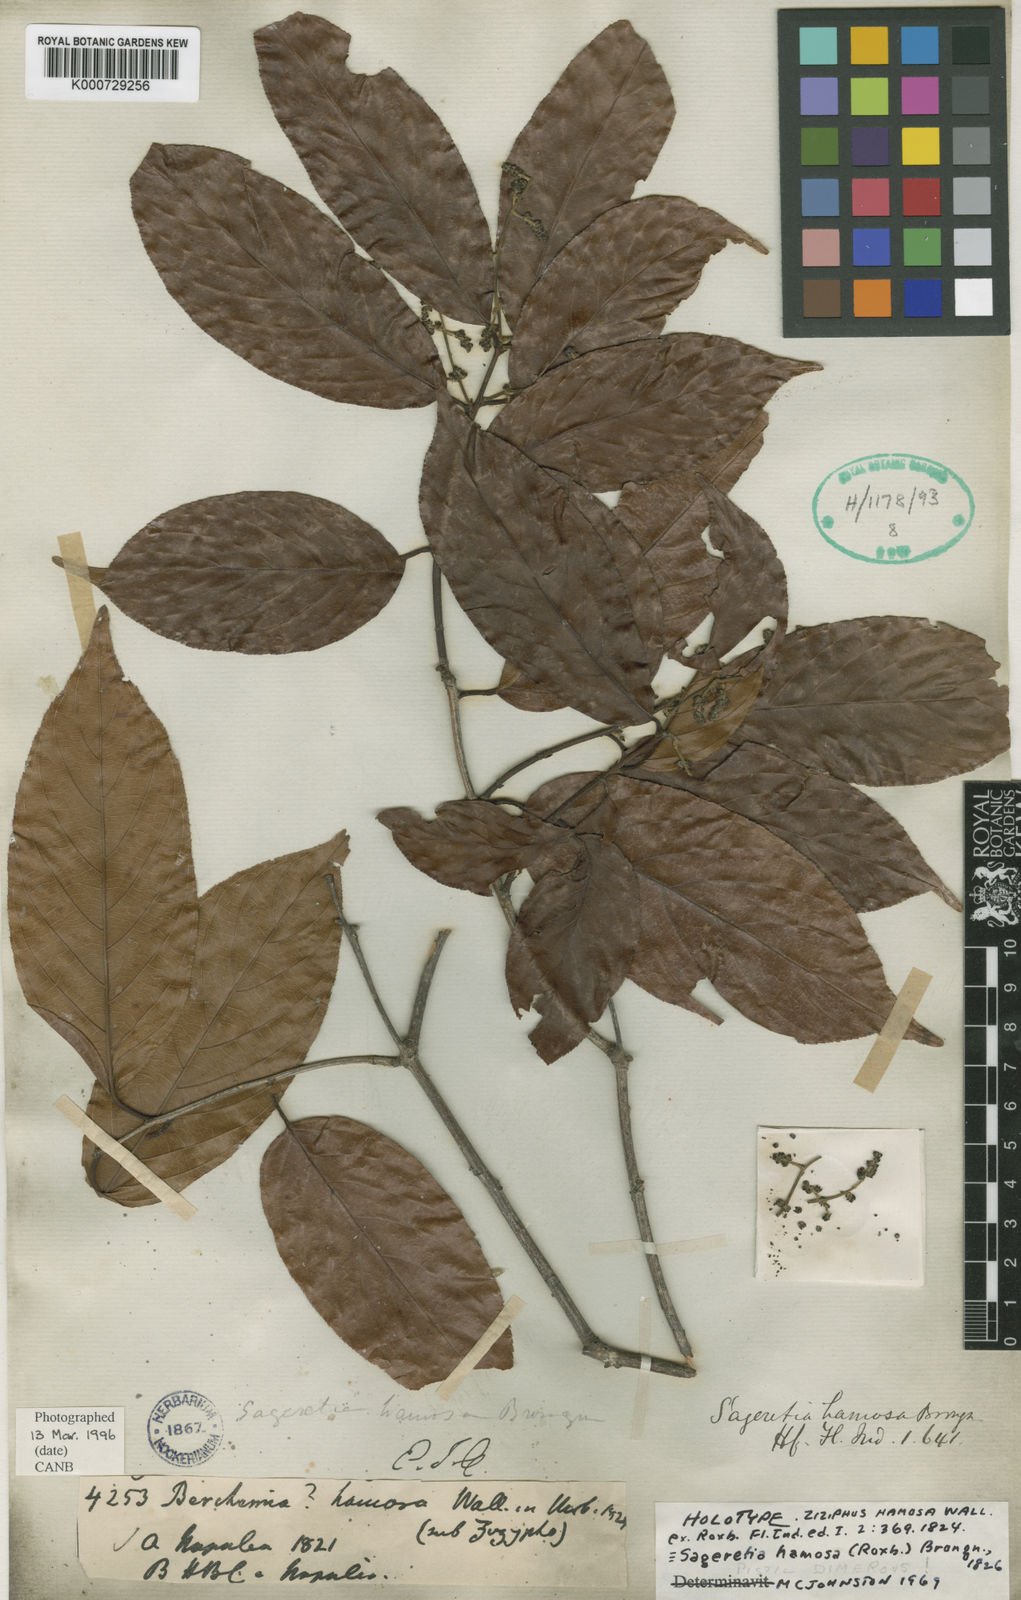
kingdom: Plantae
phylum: Tracheophyta
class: Magnoliopsida
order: Rosales
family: Rhamnaceae
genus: Sageretia
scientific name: Sageretia hamosa
